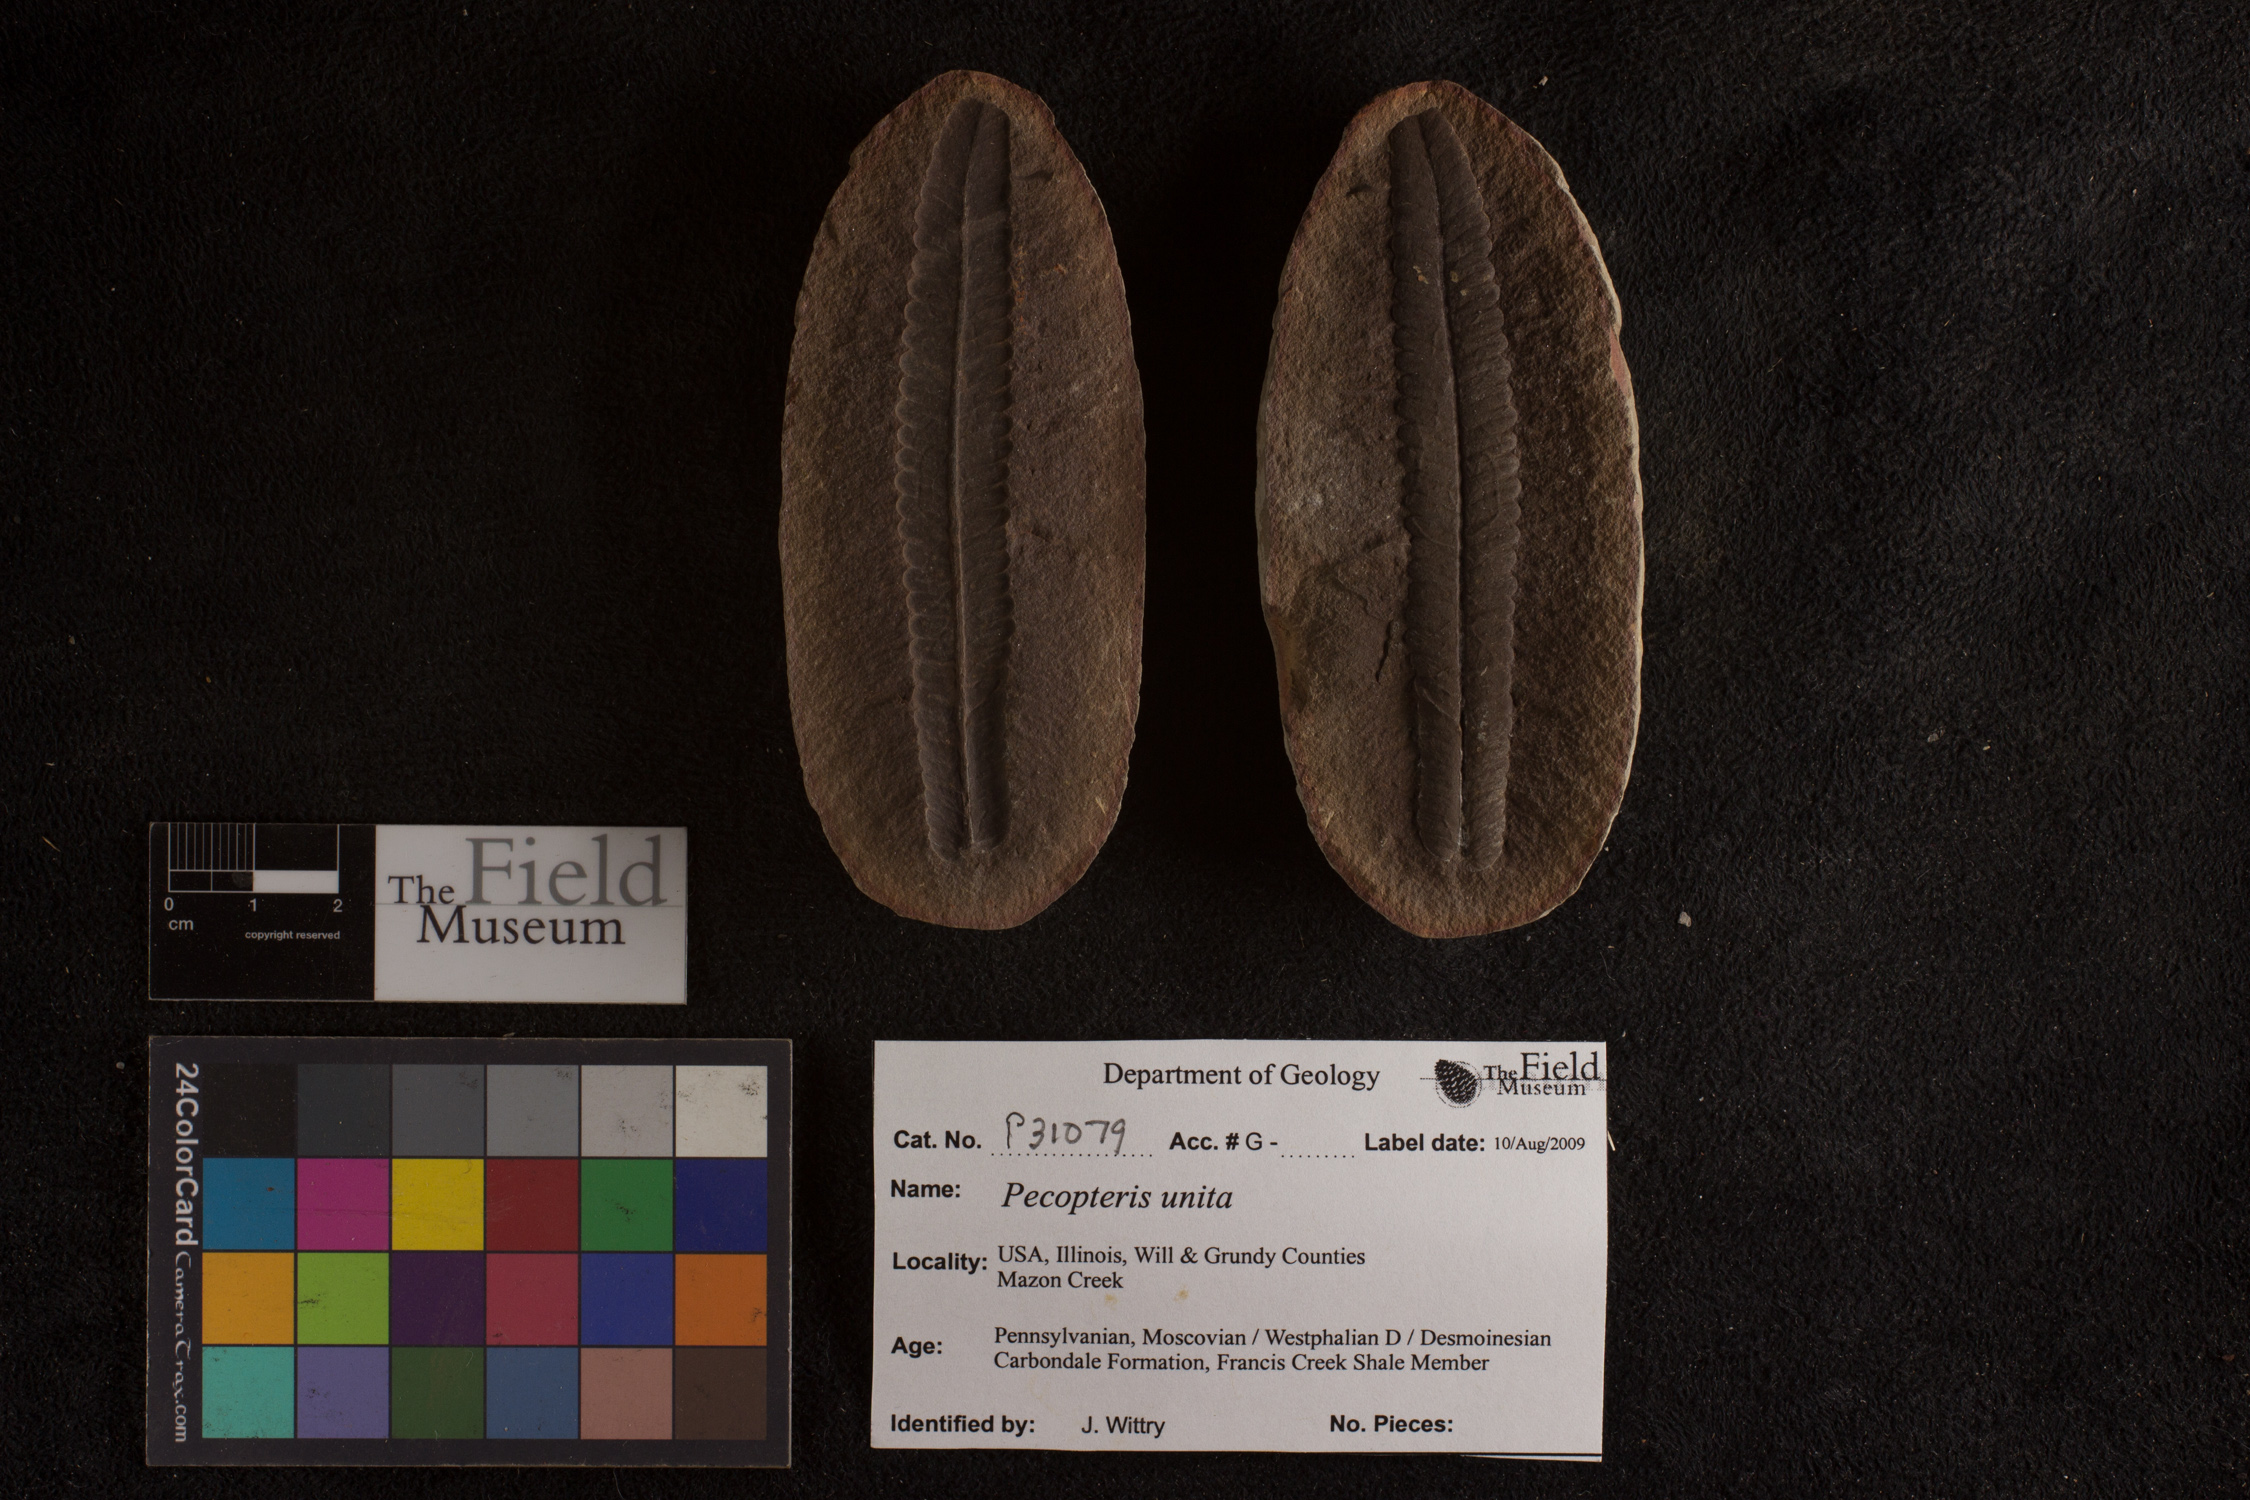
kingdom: Plantae
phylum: Tracheophyta
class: Polypodiopsida
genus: Diplazites
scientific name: Diplazites
